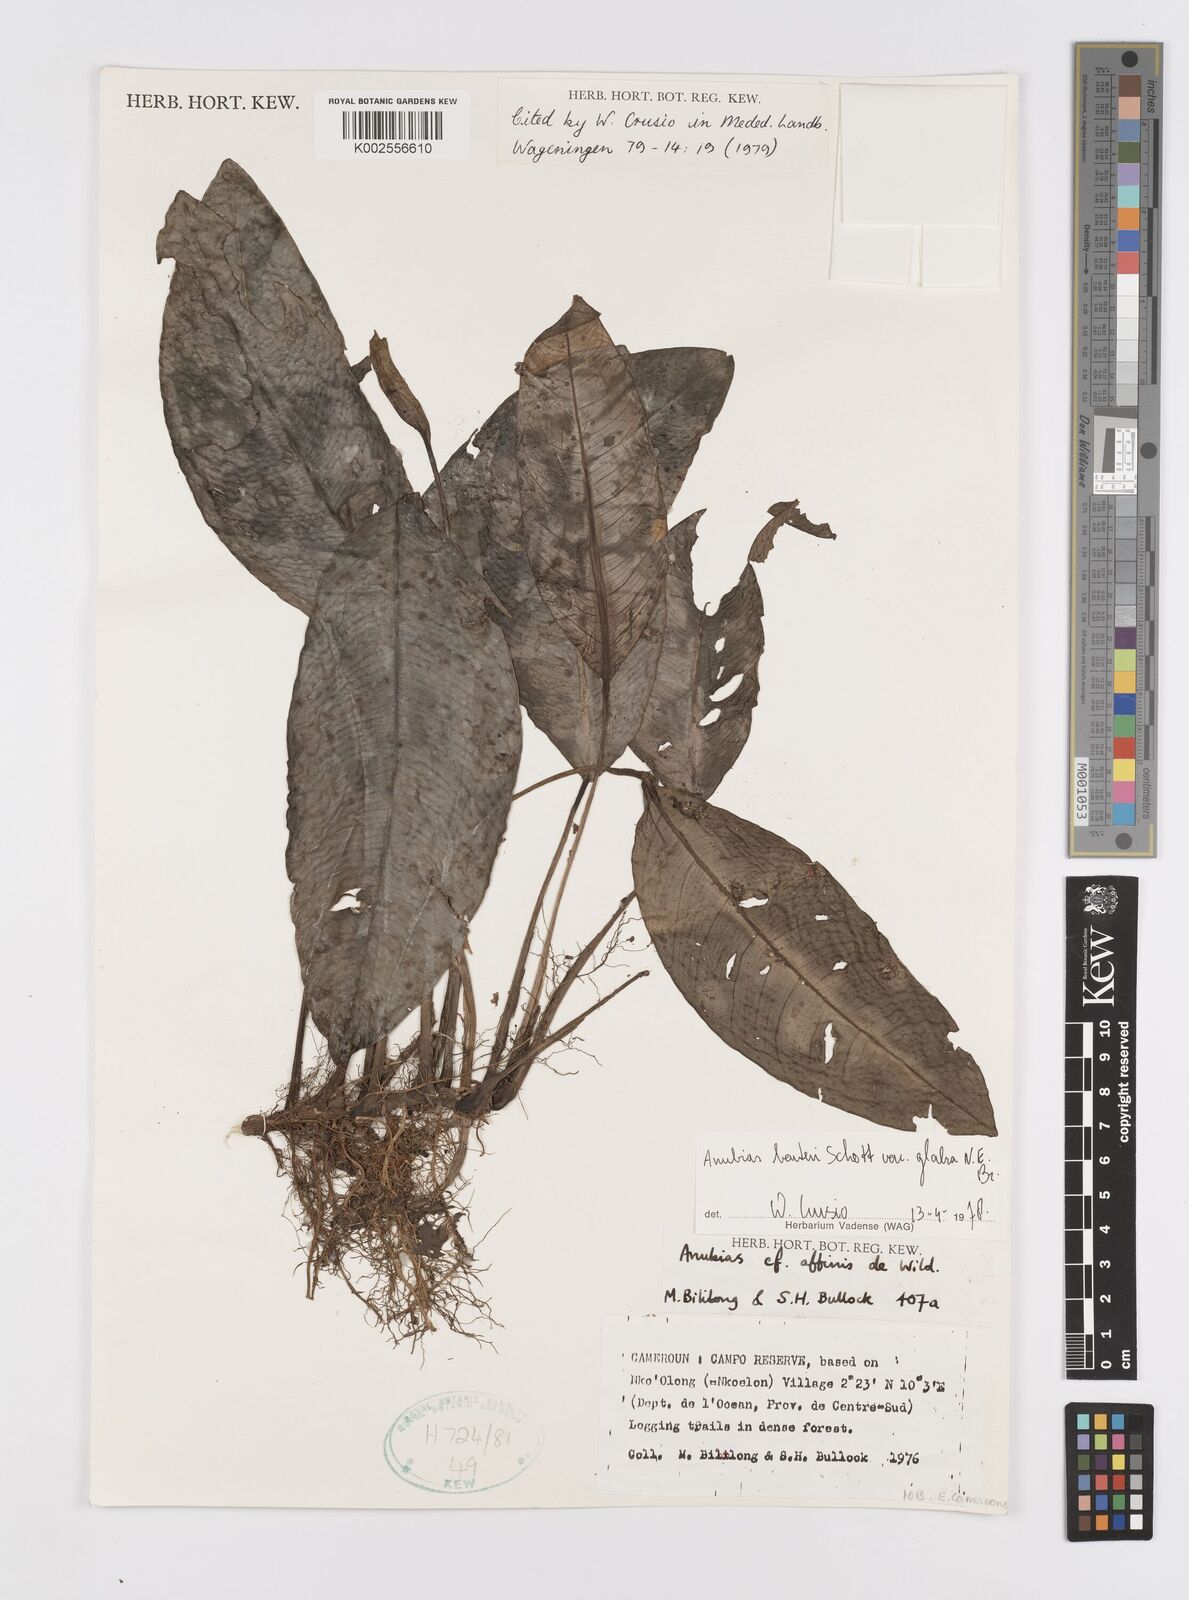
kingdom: Plantae
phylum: Tracheophyta
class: Liliopsida
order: Alismatales
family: Araceae
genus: Anubias
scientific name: Anubias barteri
